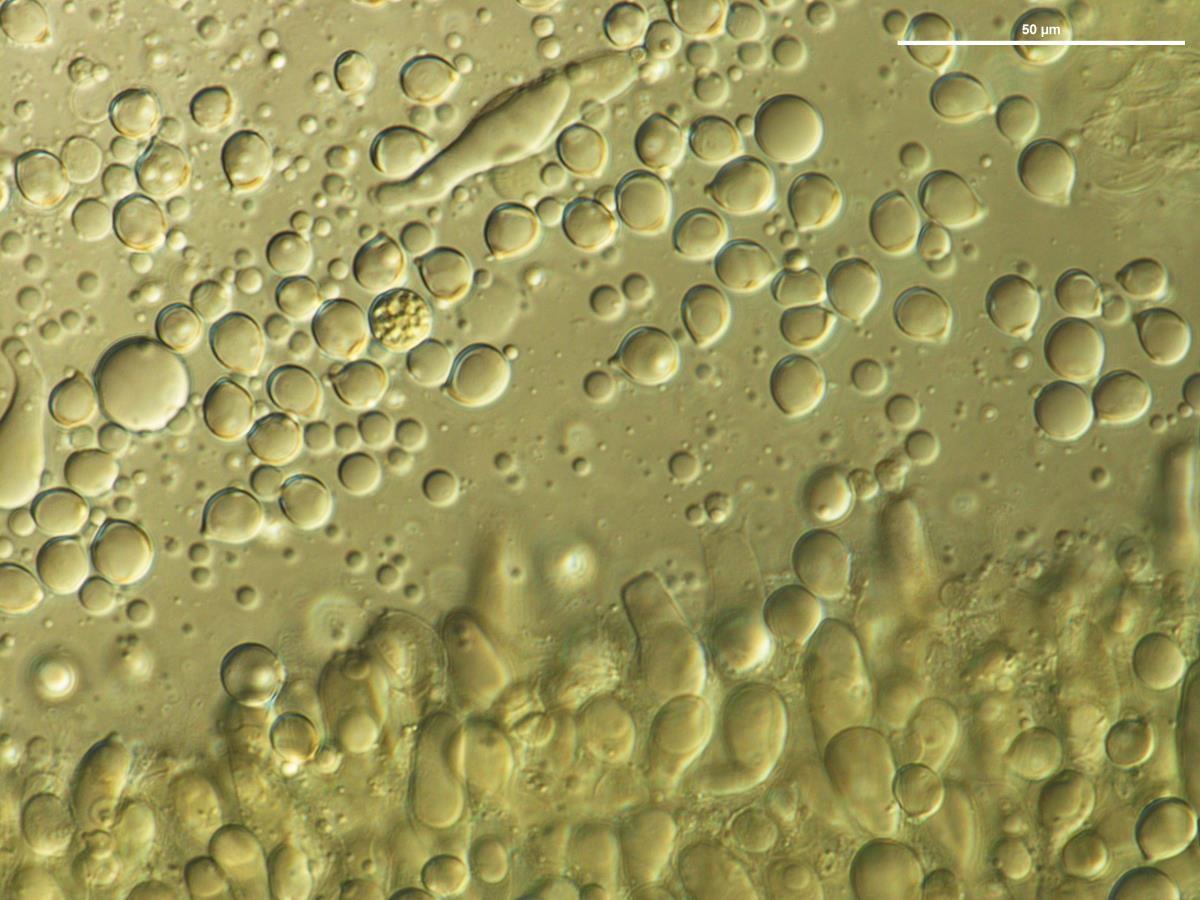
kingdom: Fungi
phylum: Basidiomycota
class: Agaricomycetes
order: Agaricales
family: Amanitaceae
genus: Amanita
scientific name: Amanita taiepa
